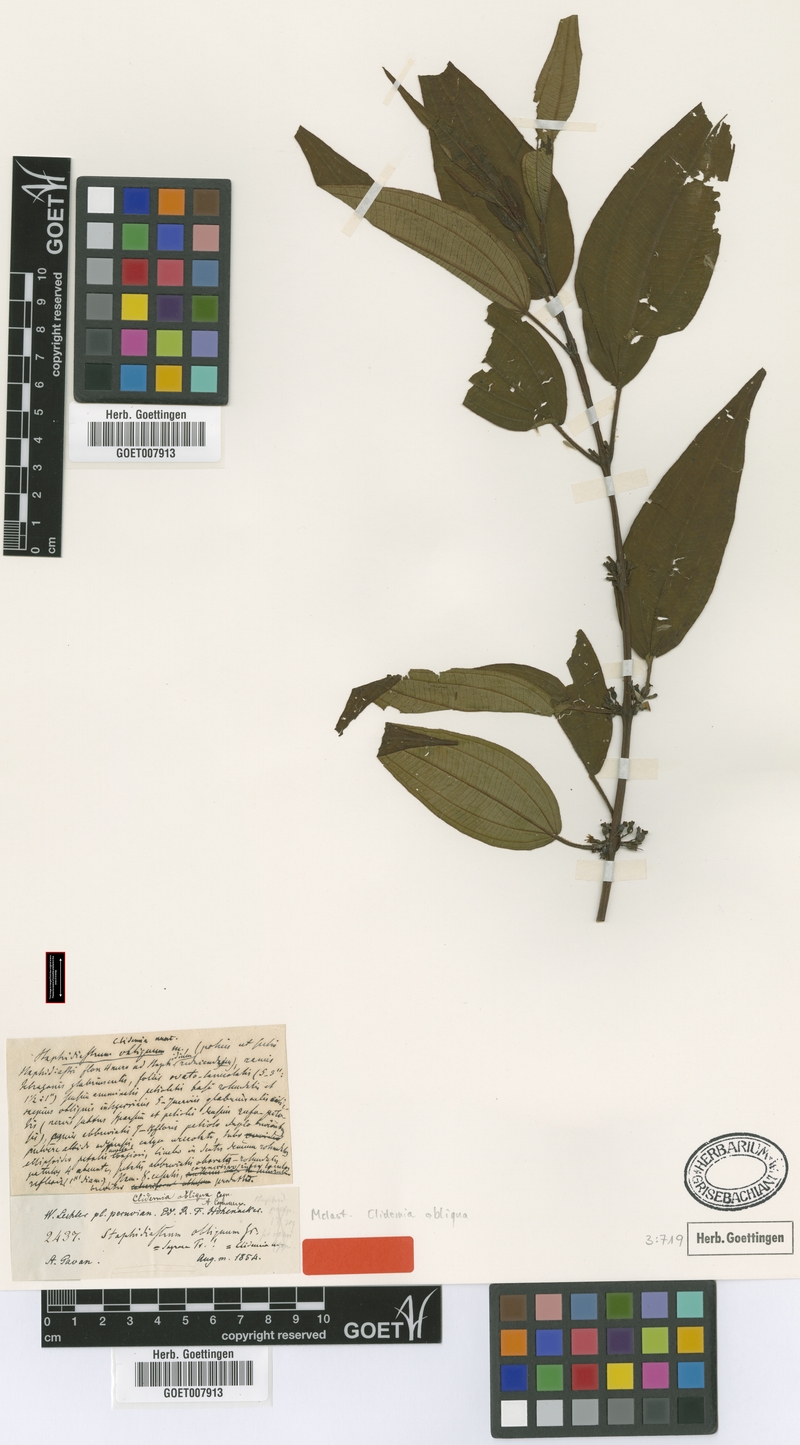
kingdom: Plantae
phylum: Tracheophyta
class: Magnoliopsida
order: Myrtales
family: Melastomataceae
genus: Miconia
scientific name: Miconia alaticaulis
